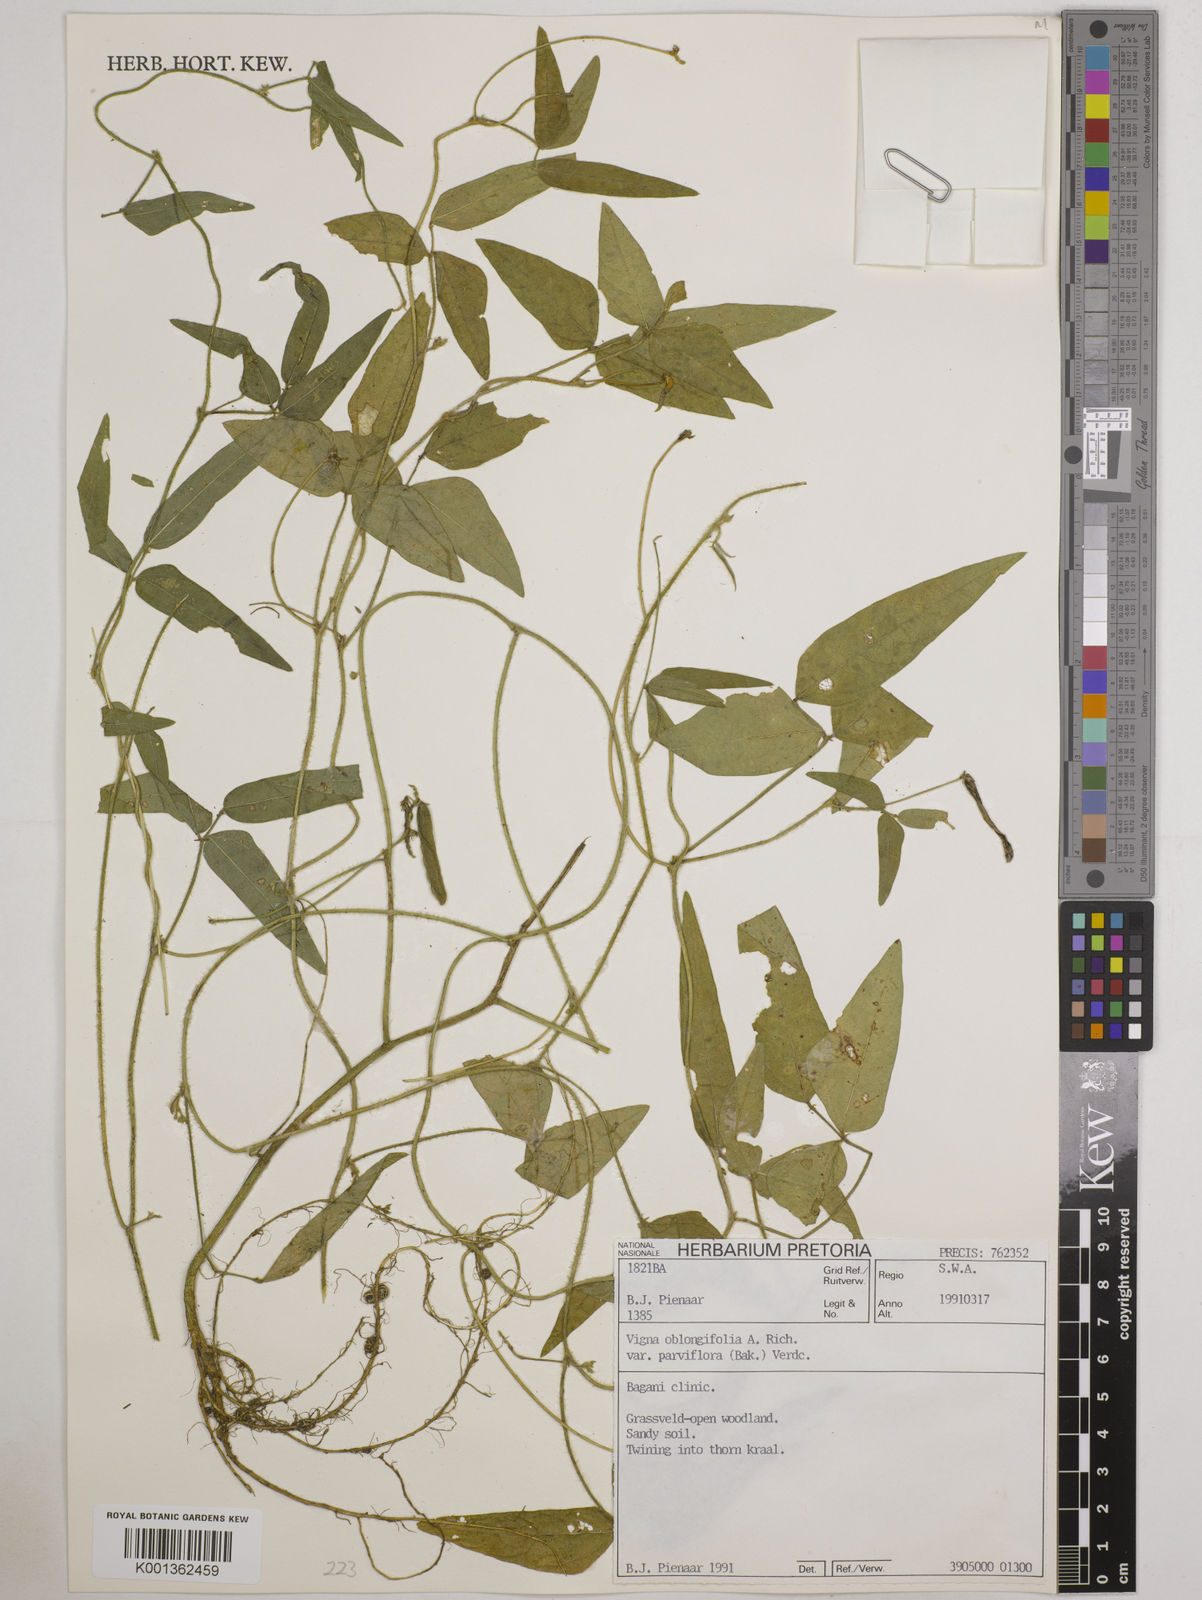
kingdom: Plantae
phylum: Tracheophyta
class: Magnoliopsida
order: Fabales
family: Fabaceae
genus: Vigna
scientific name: Vigna
